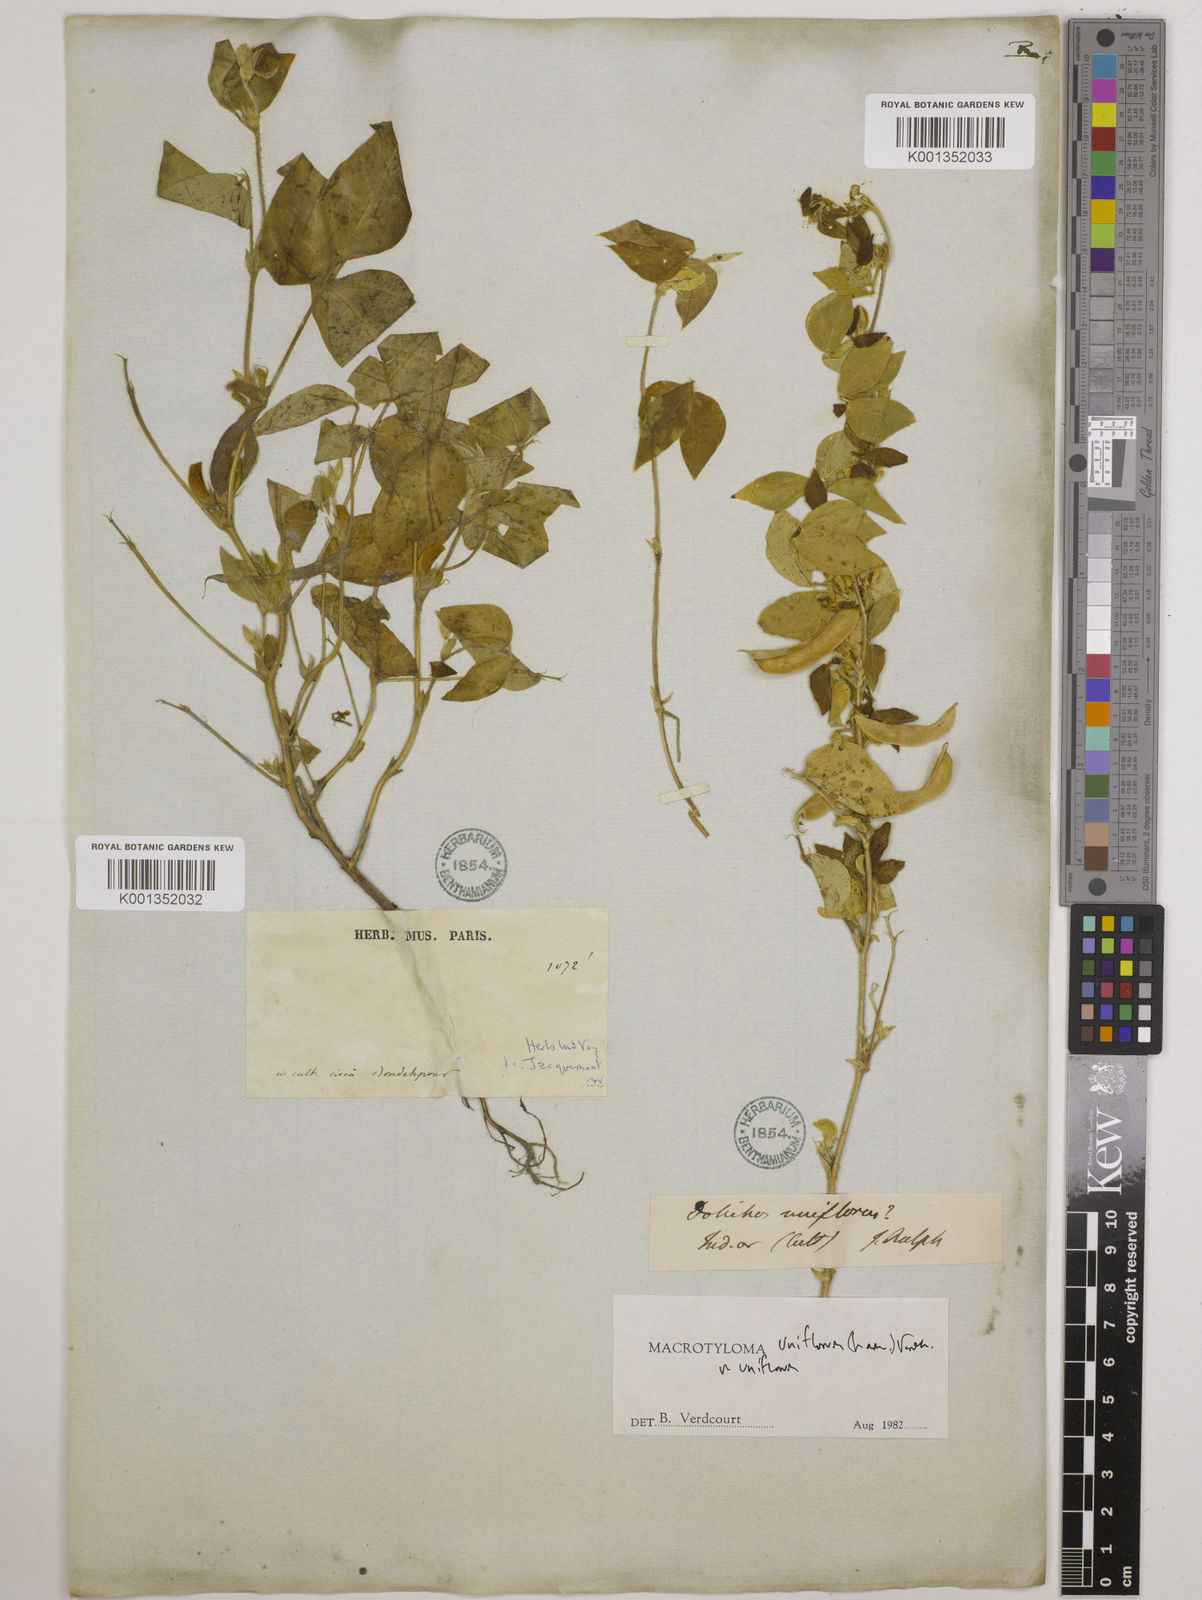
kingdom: Plantae
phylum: Tracheophyta
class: Magnoliopsida
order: Fabales
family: Fabaceae
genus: Macrotyloma
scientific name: Macrotyloma uniflorum
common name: Horse gram
